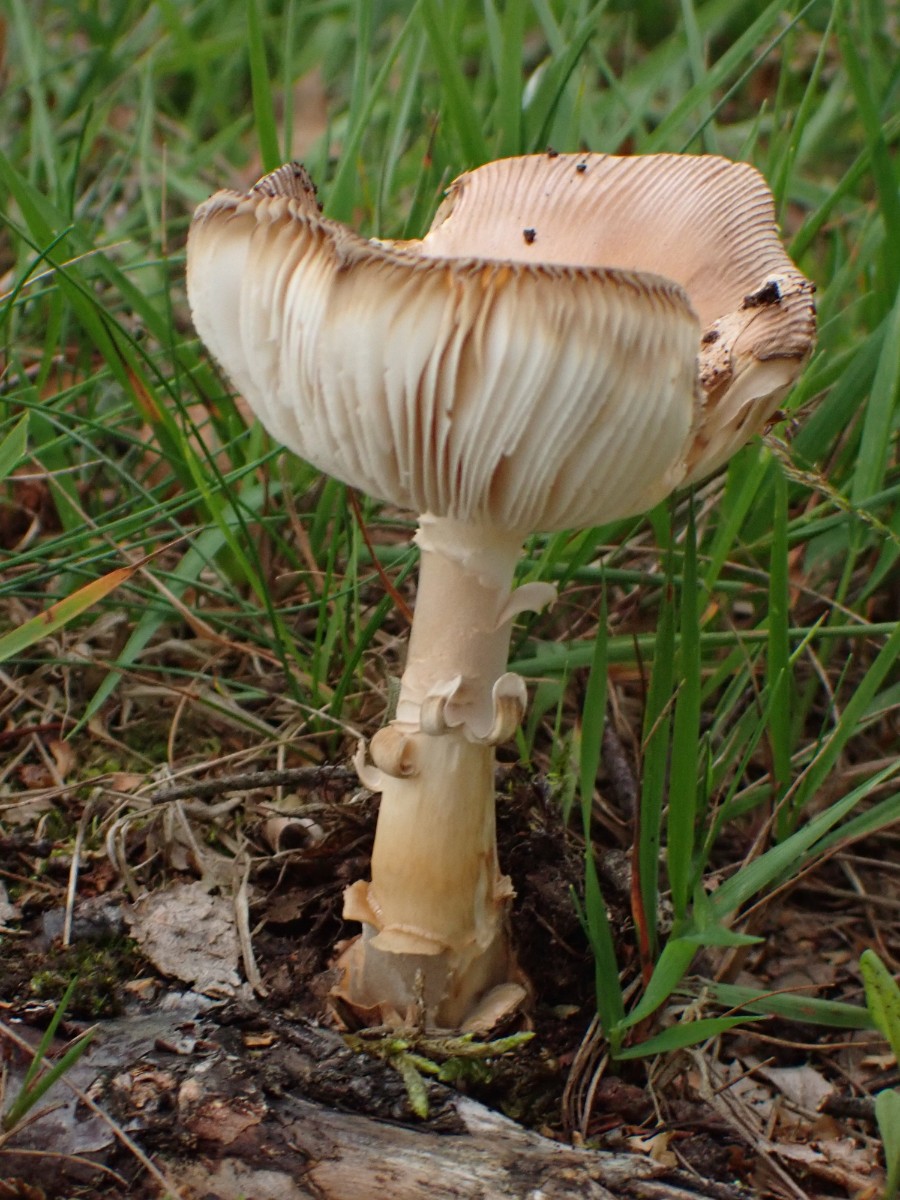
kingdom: Fungi
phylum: Basidiomycota
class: Agaricomycetes
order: Agaricales
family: Amanitaceae
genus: Amanita
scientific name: Amanita fulva
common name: brun kam-fluesvamp
